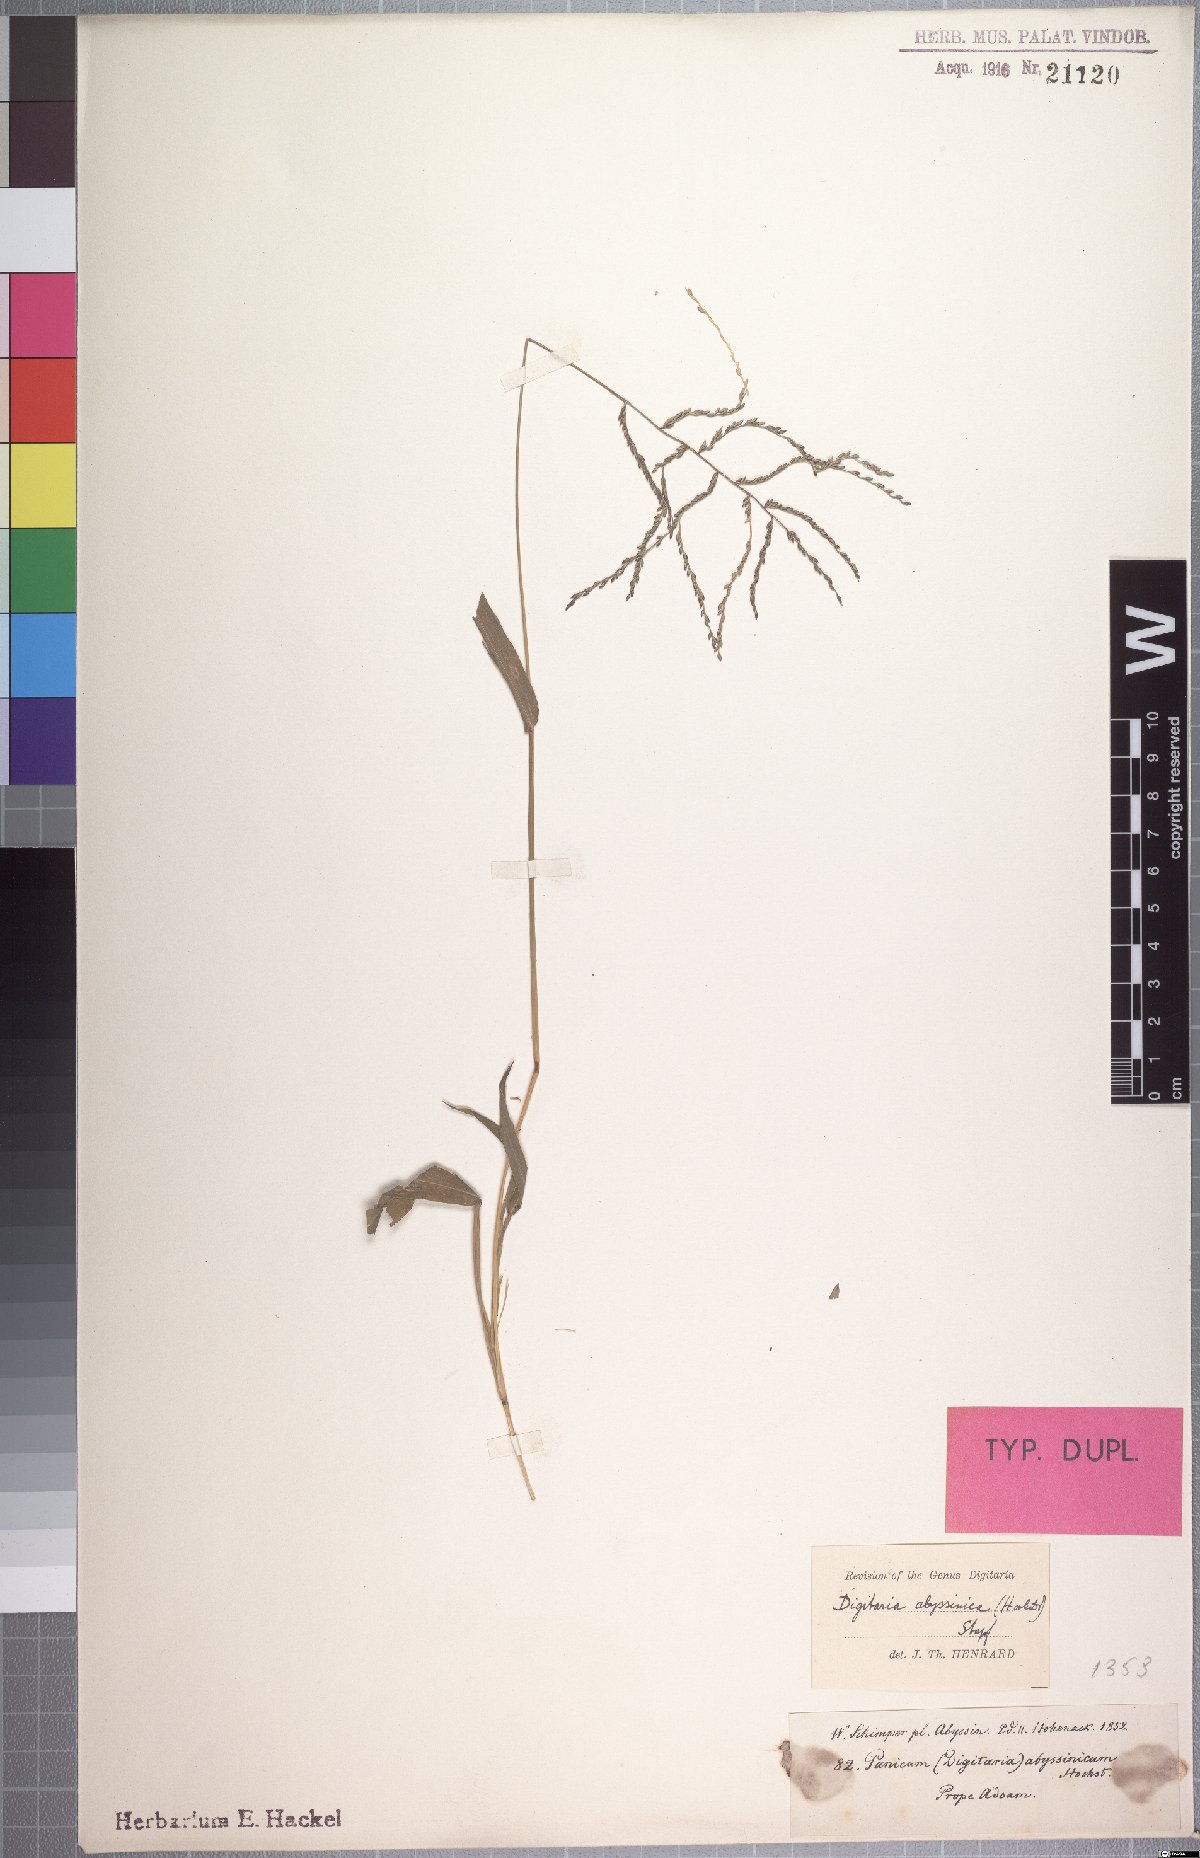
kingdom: Plantae
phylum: Tracheophyta
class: Liliopsida
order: Poales
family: Poaceae
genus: Digitaria
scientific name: Digitaria abyssinica
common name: African couchgrass
